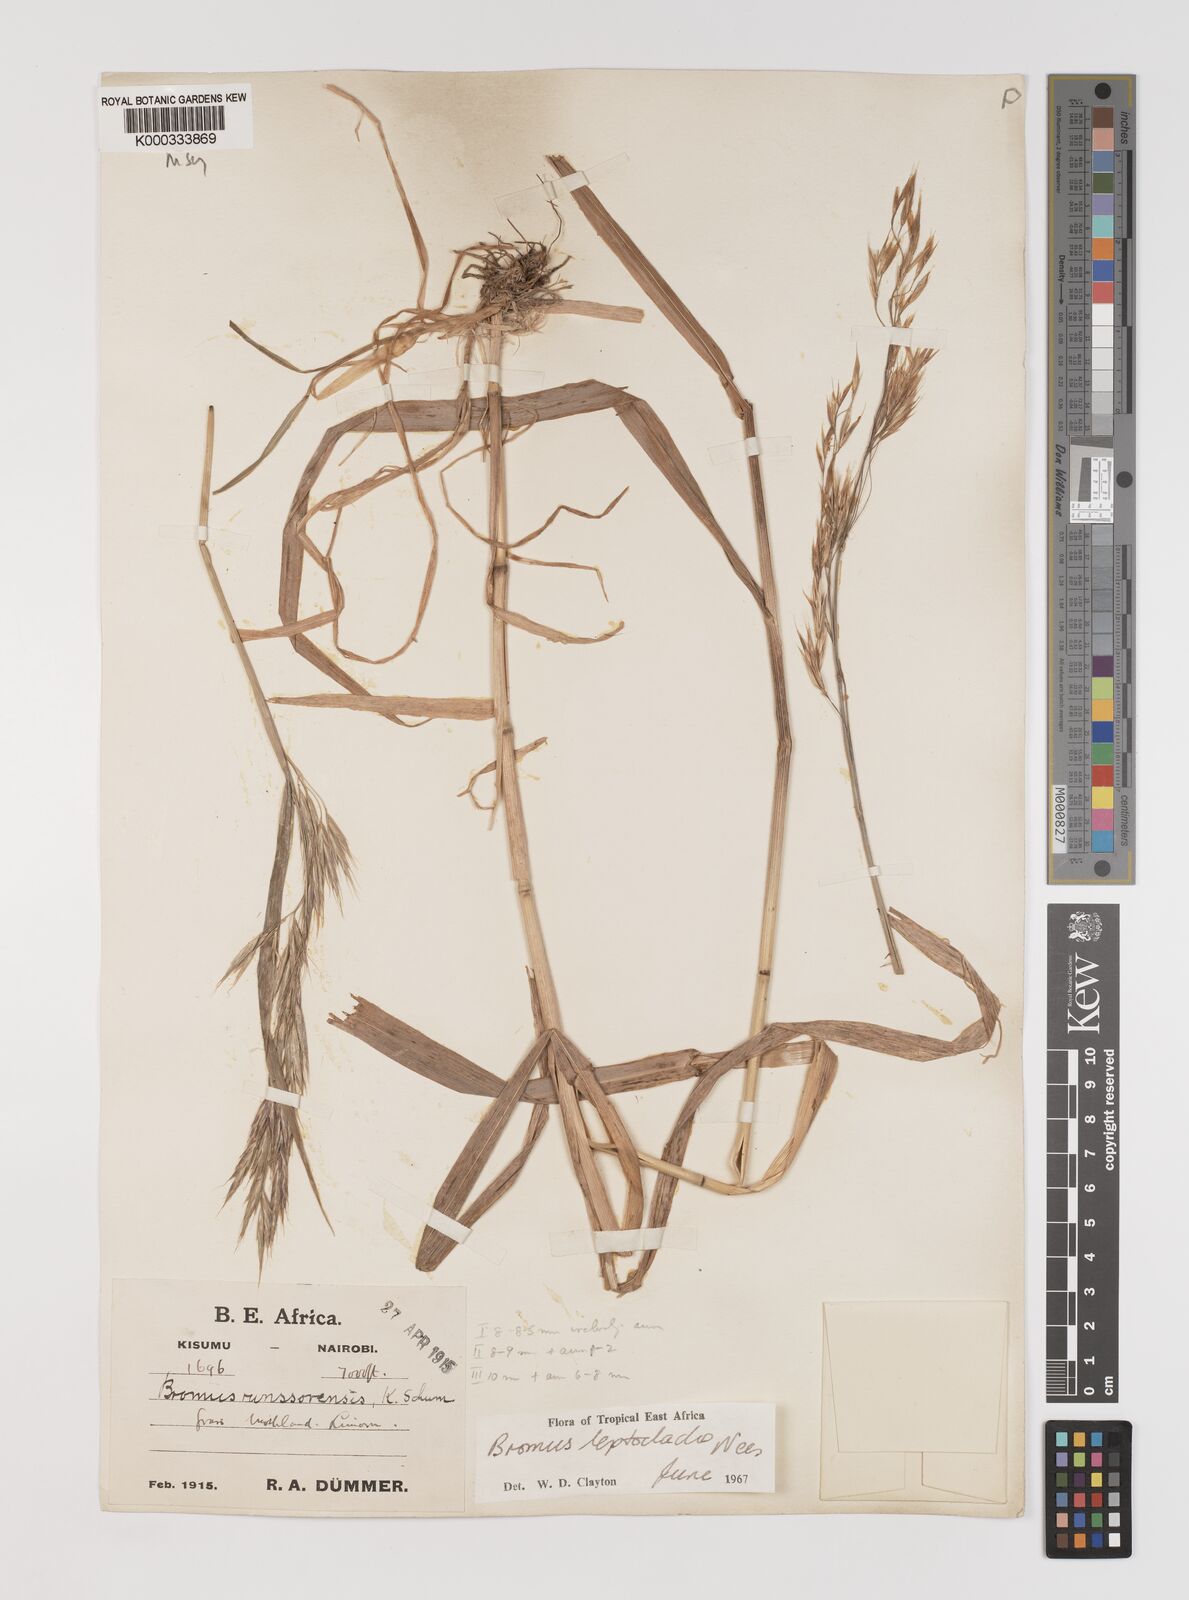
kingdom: Plantae
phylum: Tracheophyta
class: Liliopsida
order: Poales
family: Poaceae
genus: Bromus
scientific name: Bromus leptoclados
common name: Mountain bromegrass
